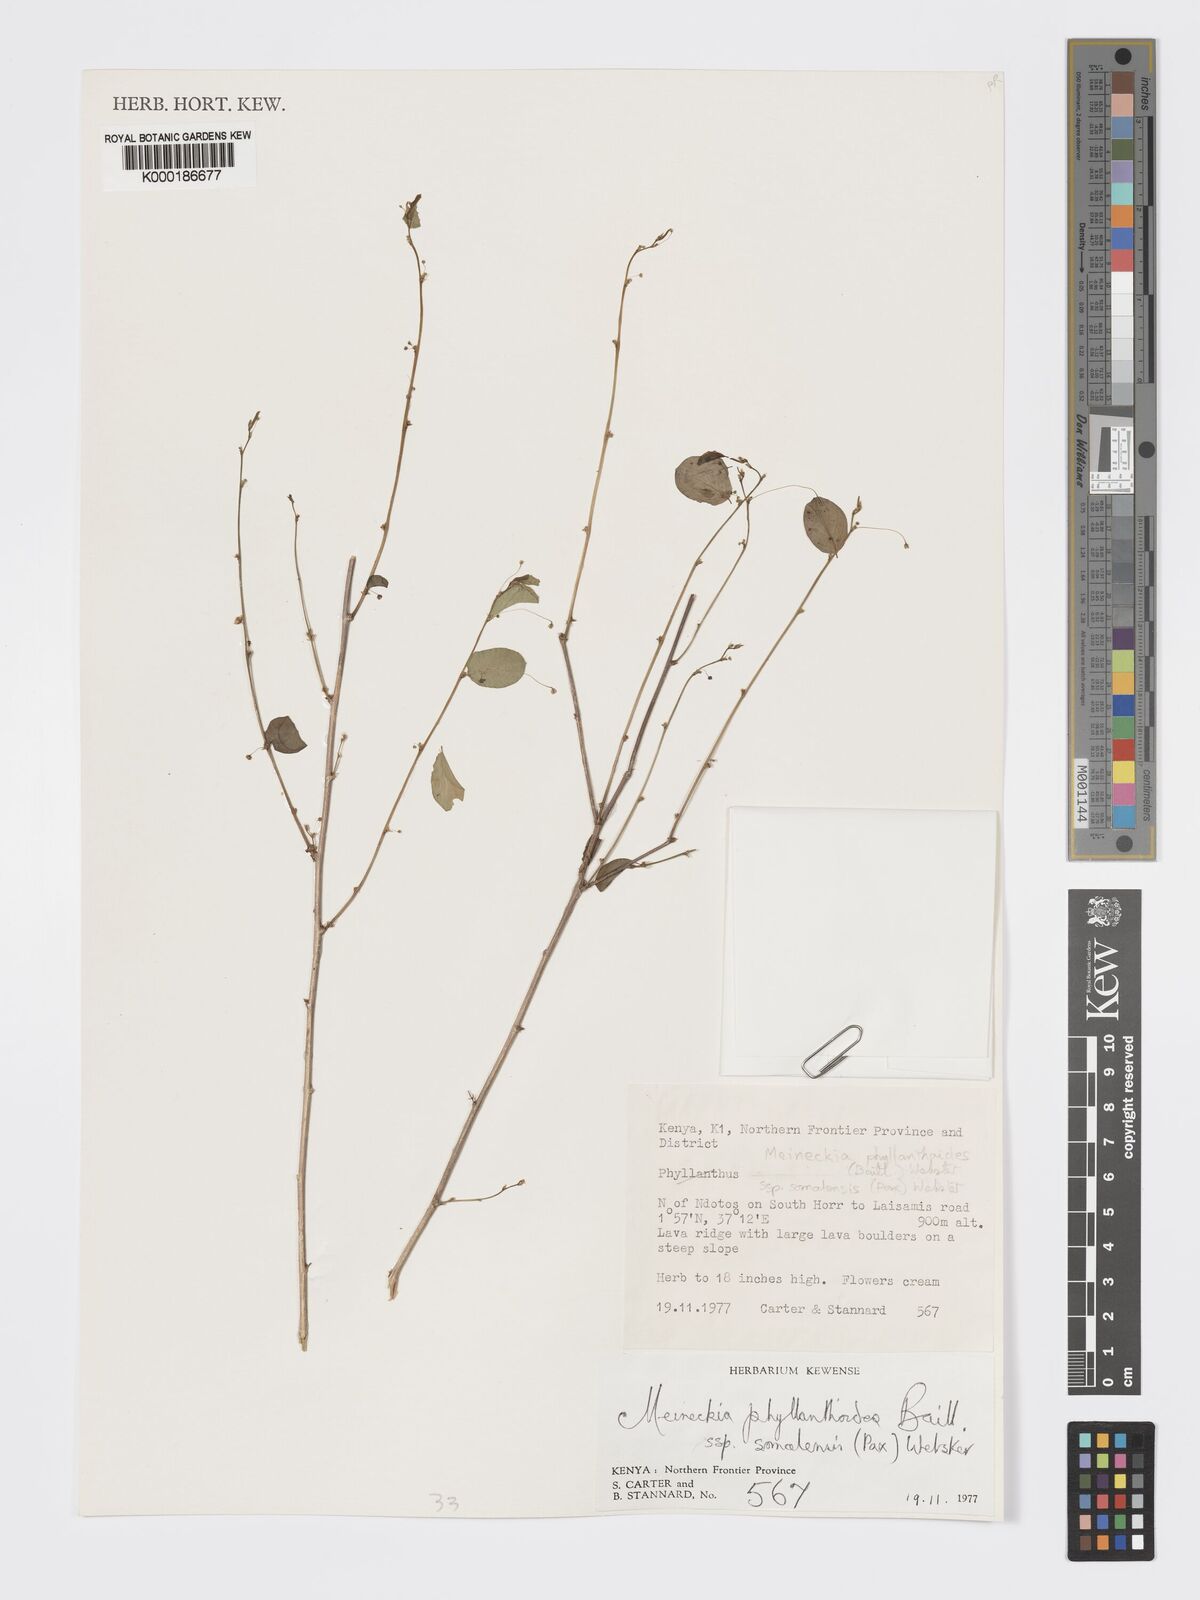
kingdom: Plantae
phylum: Tracheophyta
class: Magnoliopsida
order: Malpighiales
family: Phyllanthaceae
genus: Meineckia
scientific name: Meineckia phyllanthoides
